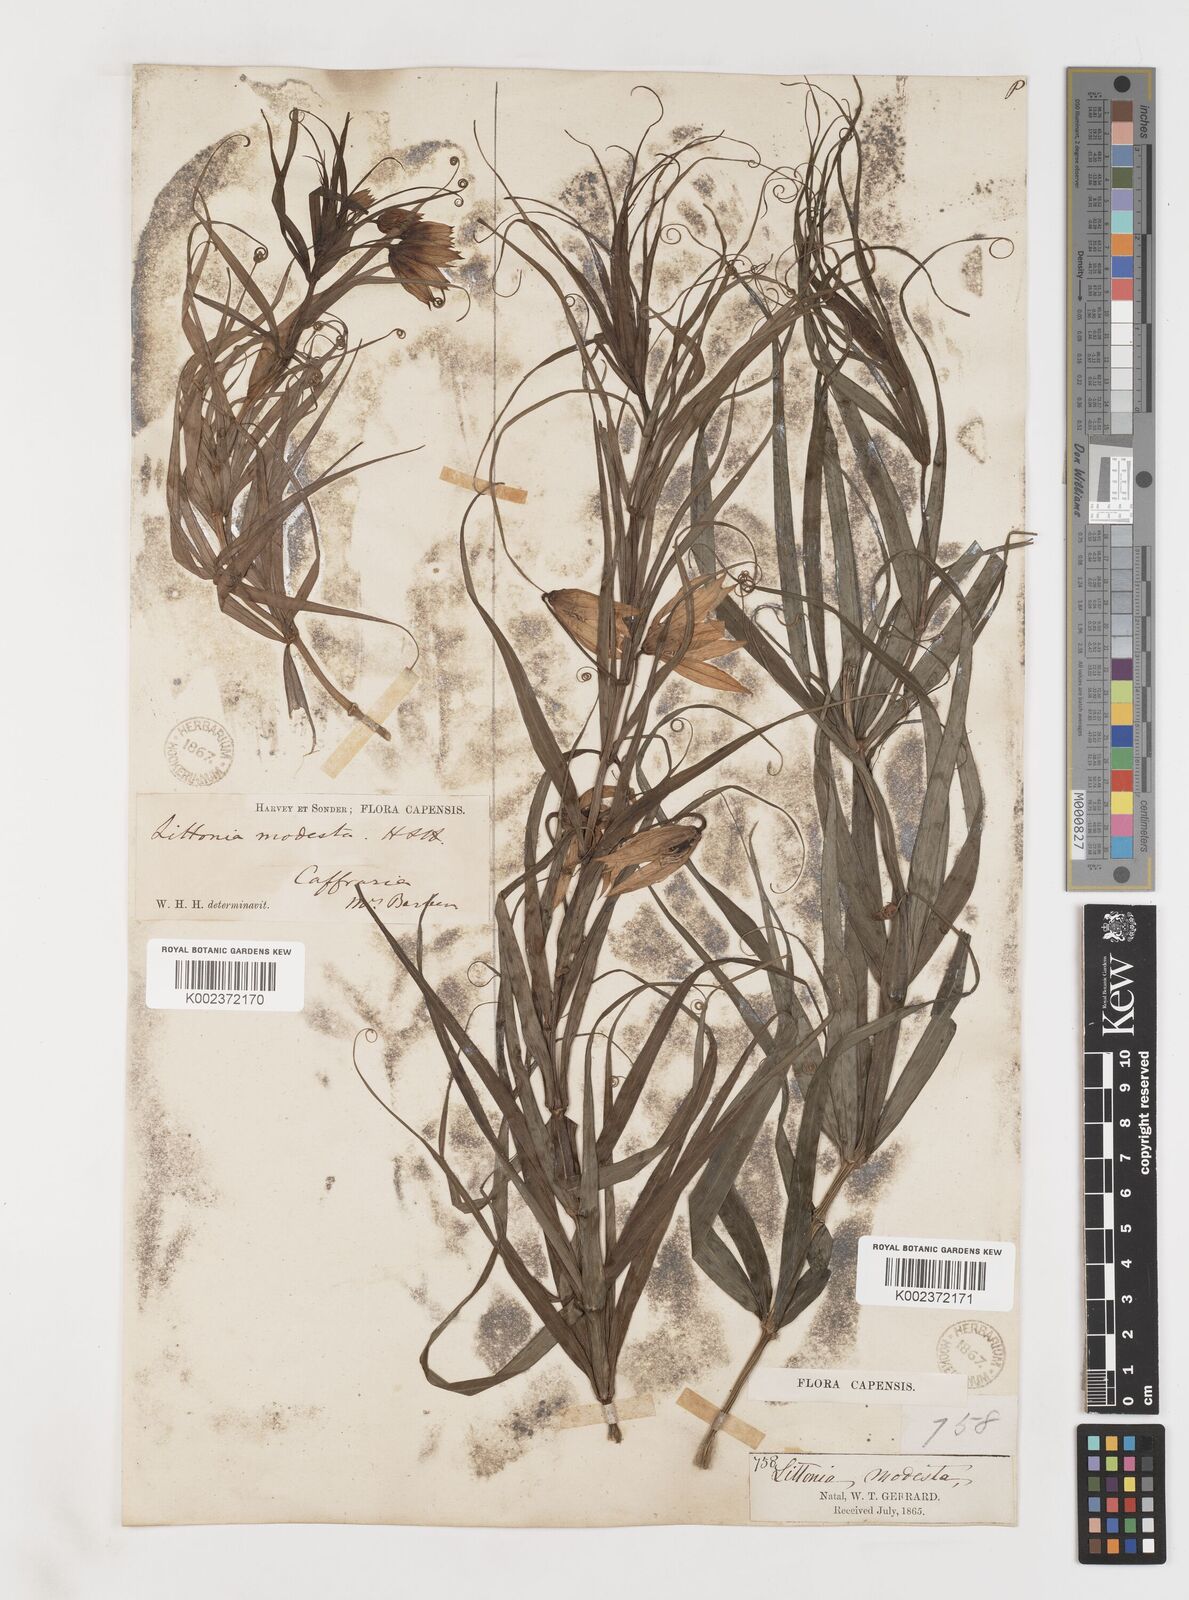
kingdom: Plantae
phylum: Tracheophyta
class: Liliopsida
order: Liliales
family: Colchicaceae
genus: Gloriosa
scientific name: Gloriosa modesta
